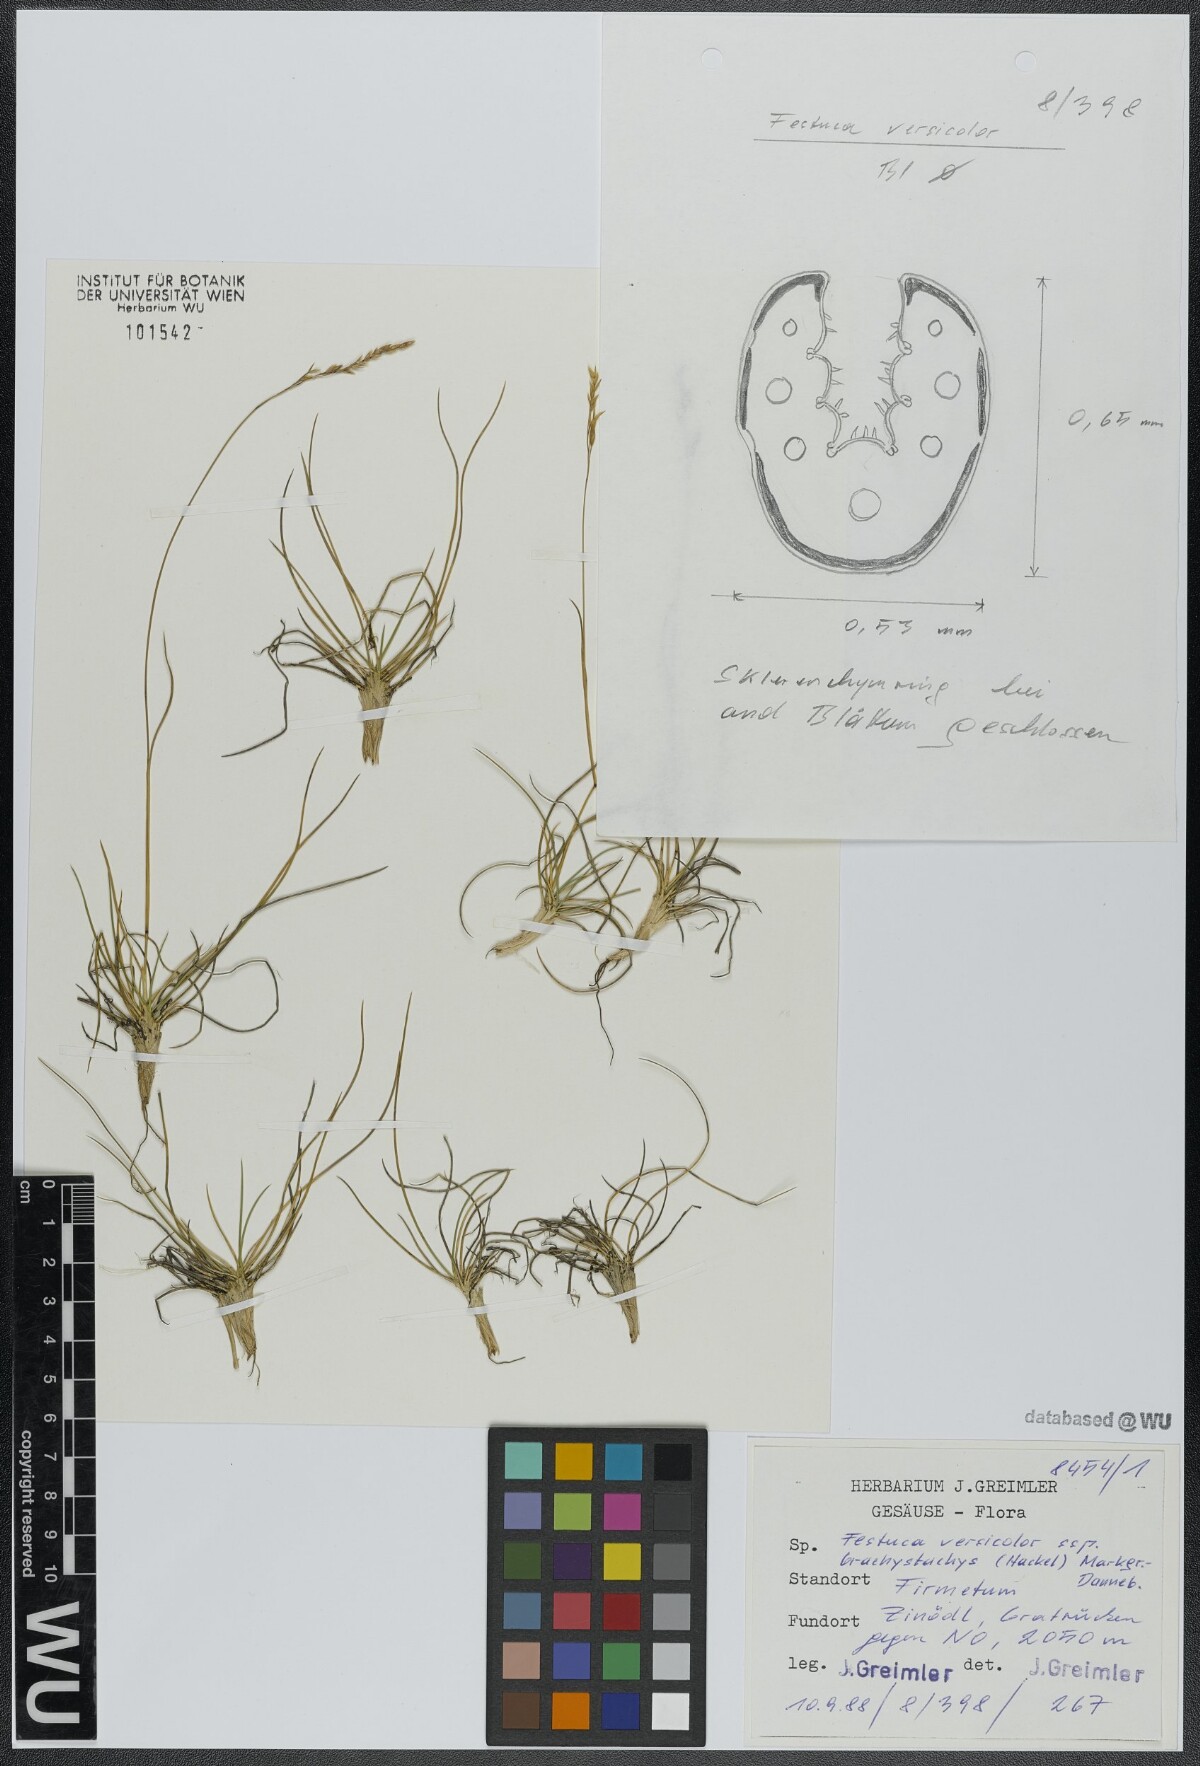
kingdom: Plantae
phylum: Tracheophyta
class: Liliopsida
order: Poales
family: Poaceae
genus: Festuca
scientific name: Festuca varia
